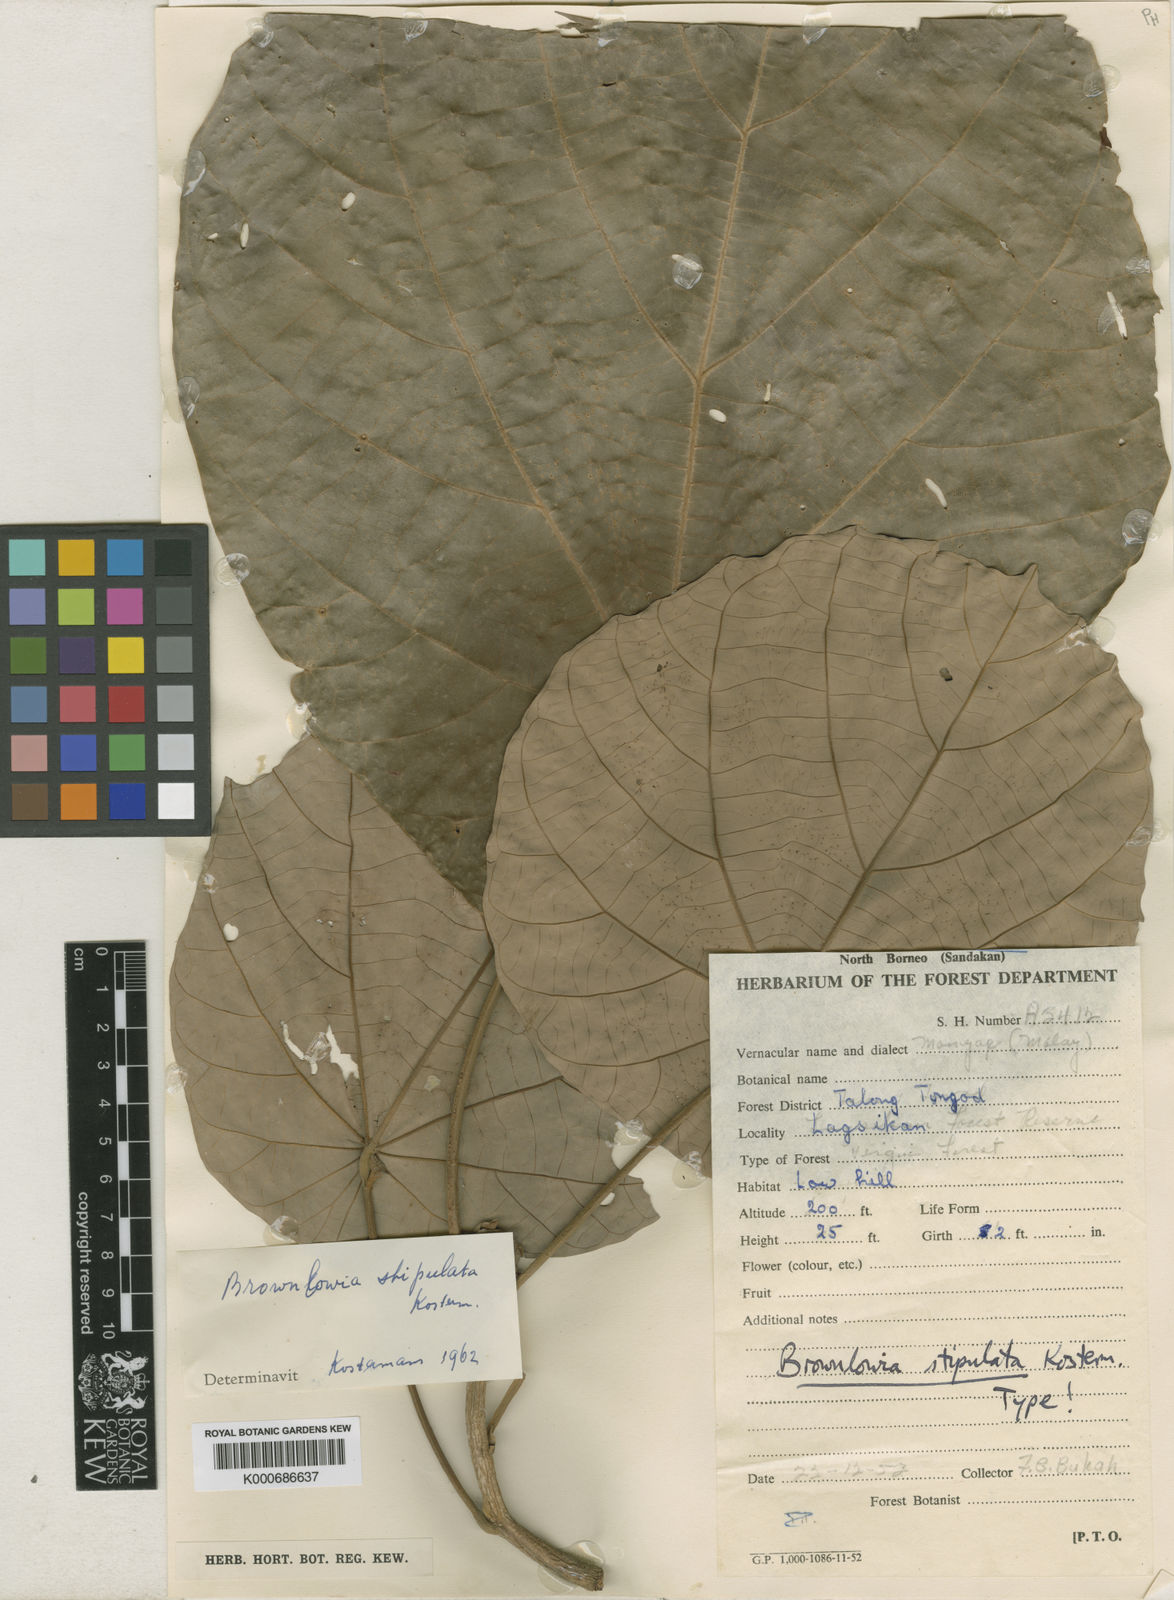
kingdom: Plantae
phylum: Tracheophyta
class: Magnoliopsida
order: Malvales
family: Malvaceae
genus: Brownlowia
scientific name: Brownlowia stipulata
